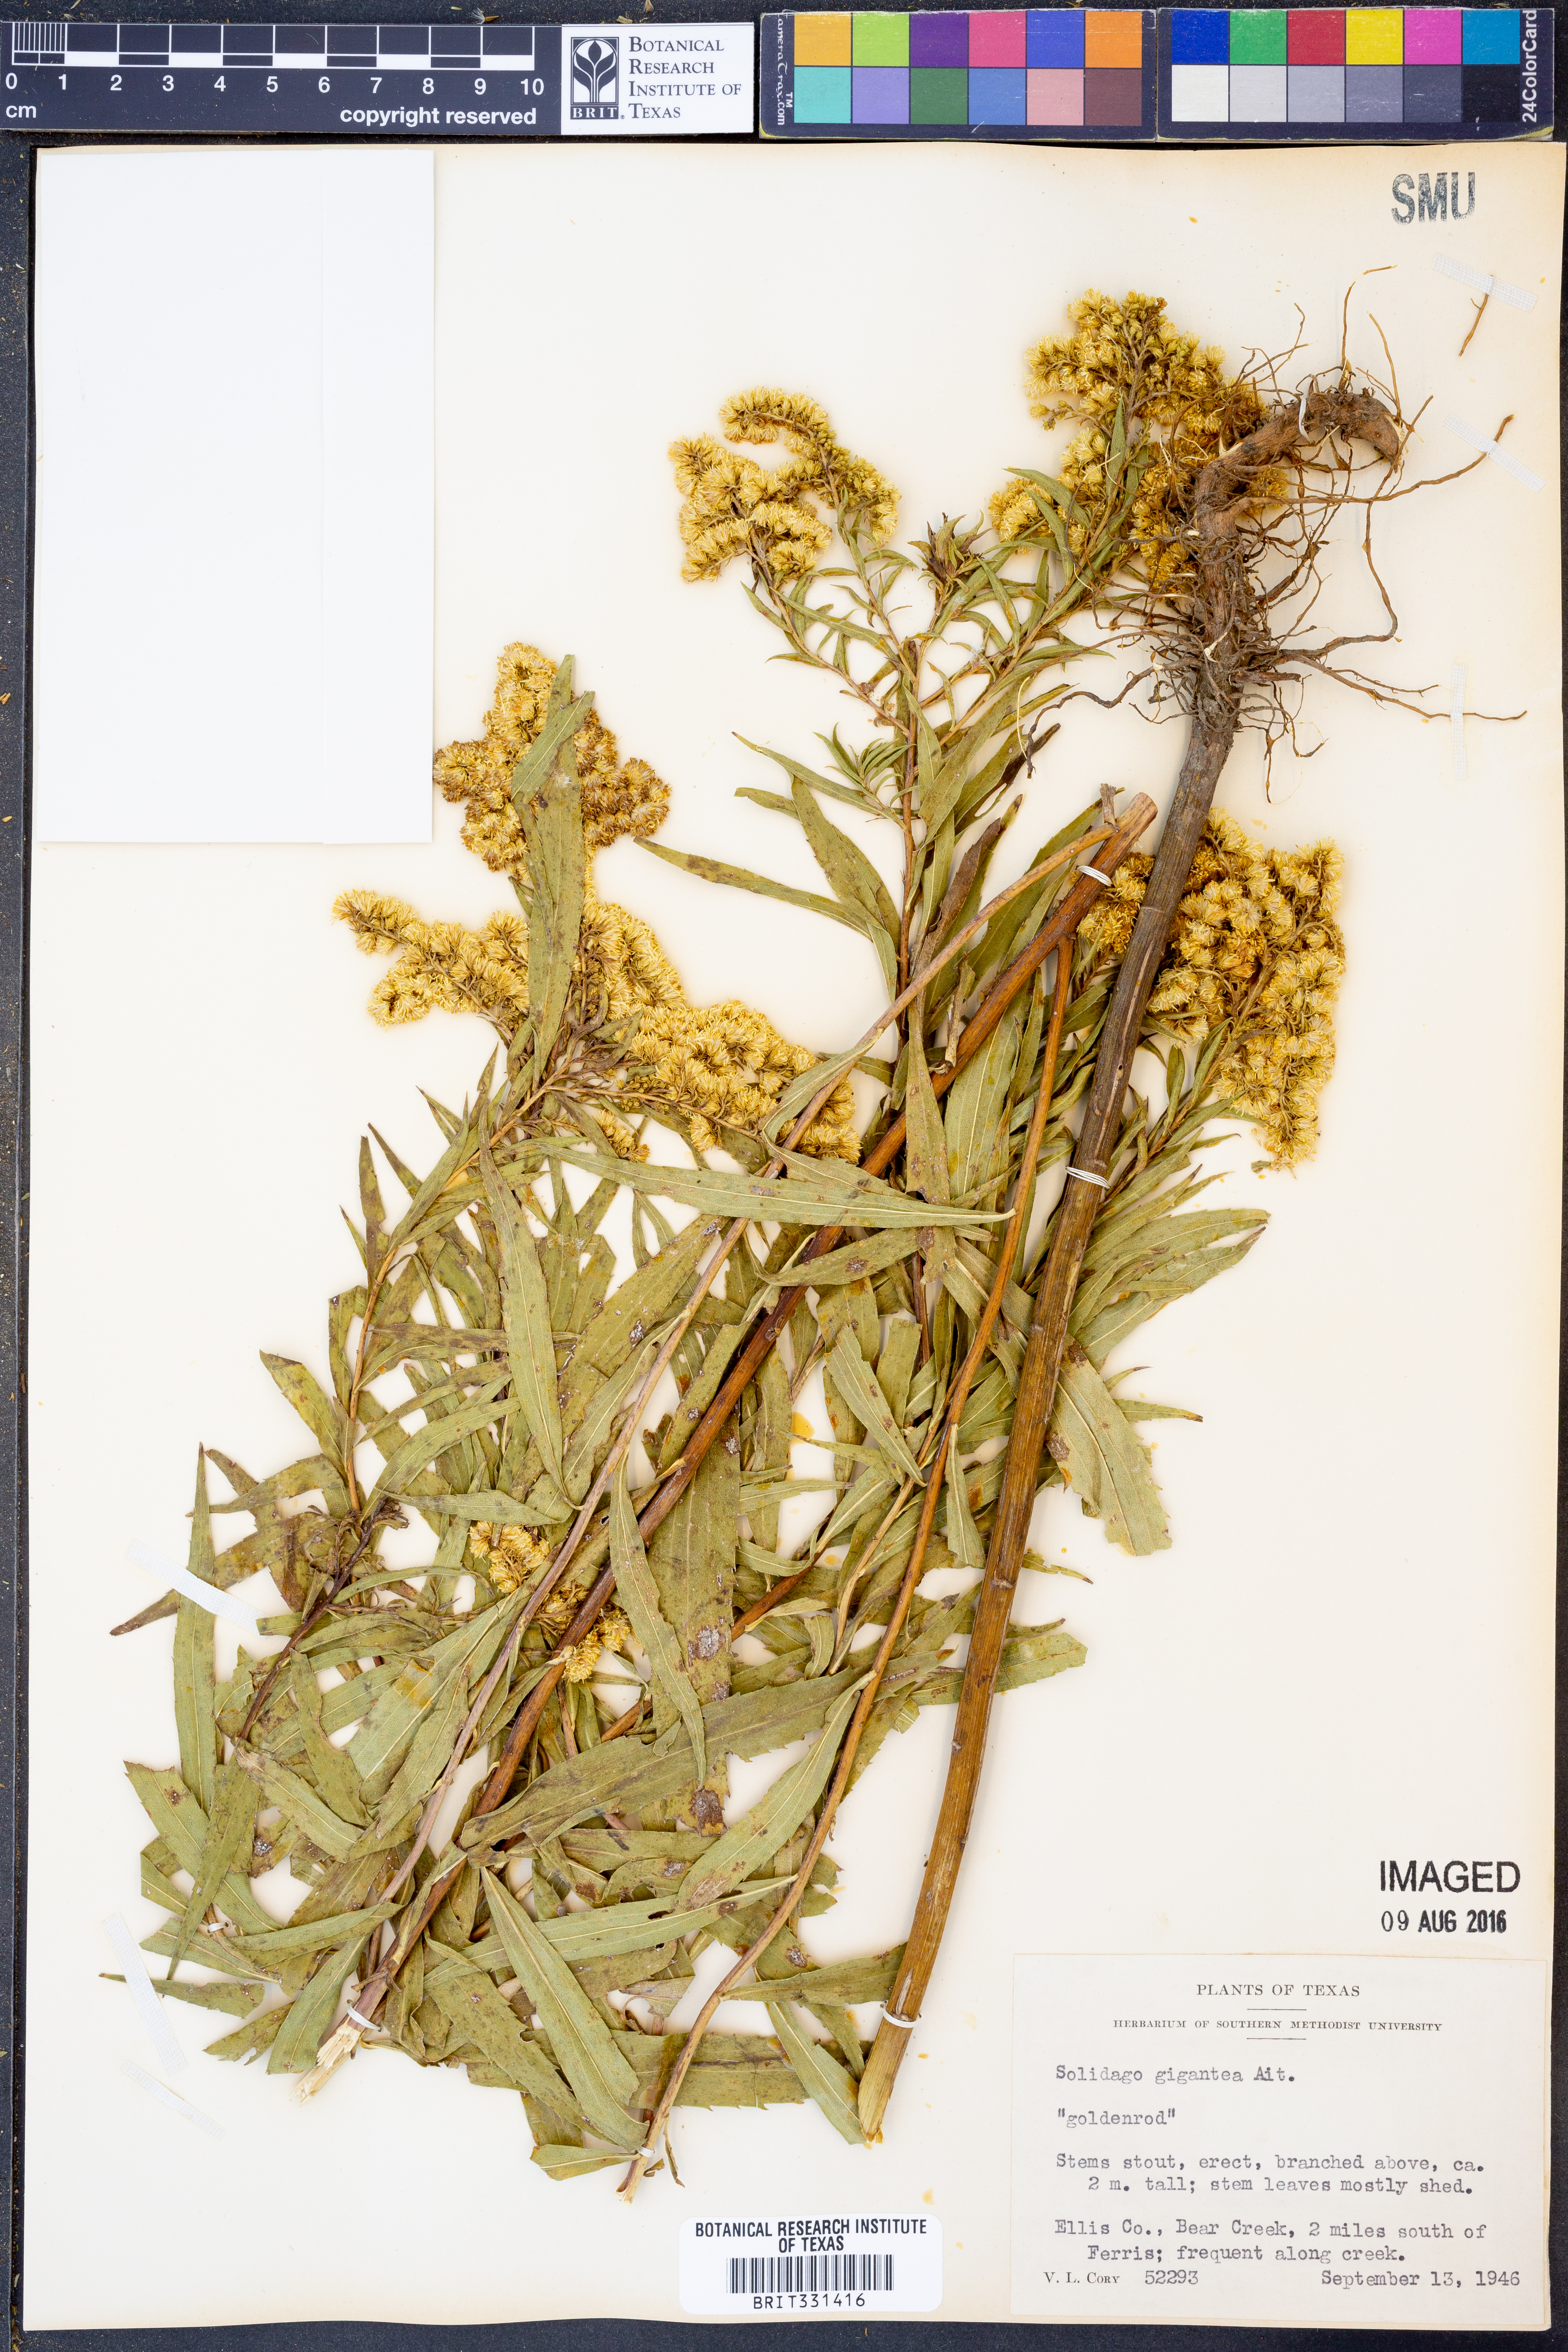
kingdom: Plantae
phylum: Tracheophyta
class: Magnoliopsida
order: Asterales
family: Asteraceae
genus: Solidago
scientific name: Solidago gigantea
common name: Giant goldenrod
